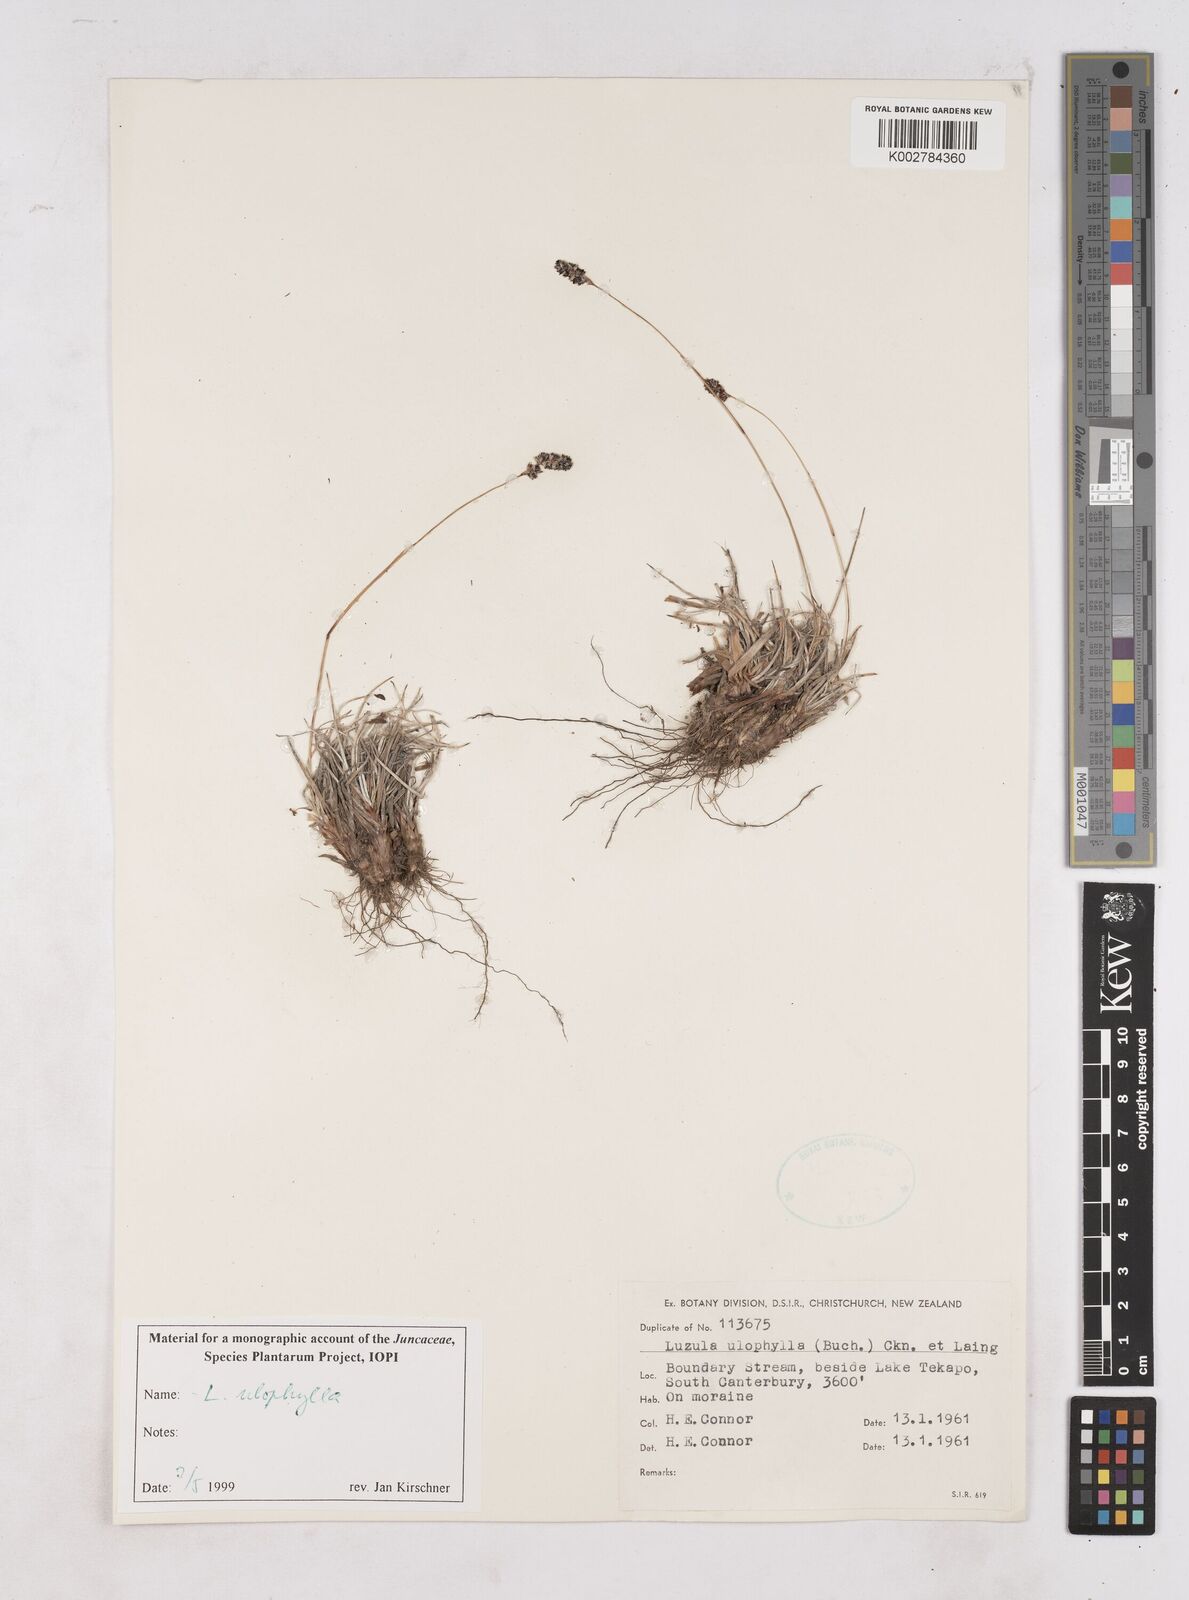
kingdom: Plantae
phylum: Tracheophyta
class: Liliopsida
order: Poales
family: Juncaceae
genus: Luzula
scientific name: Luzula ulophylla
